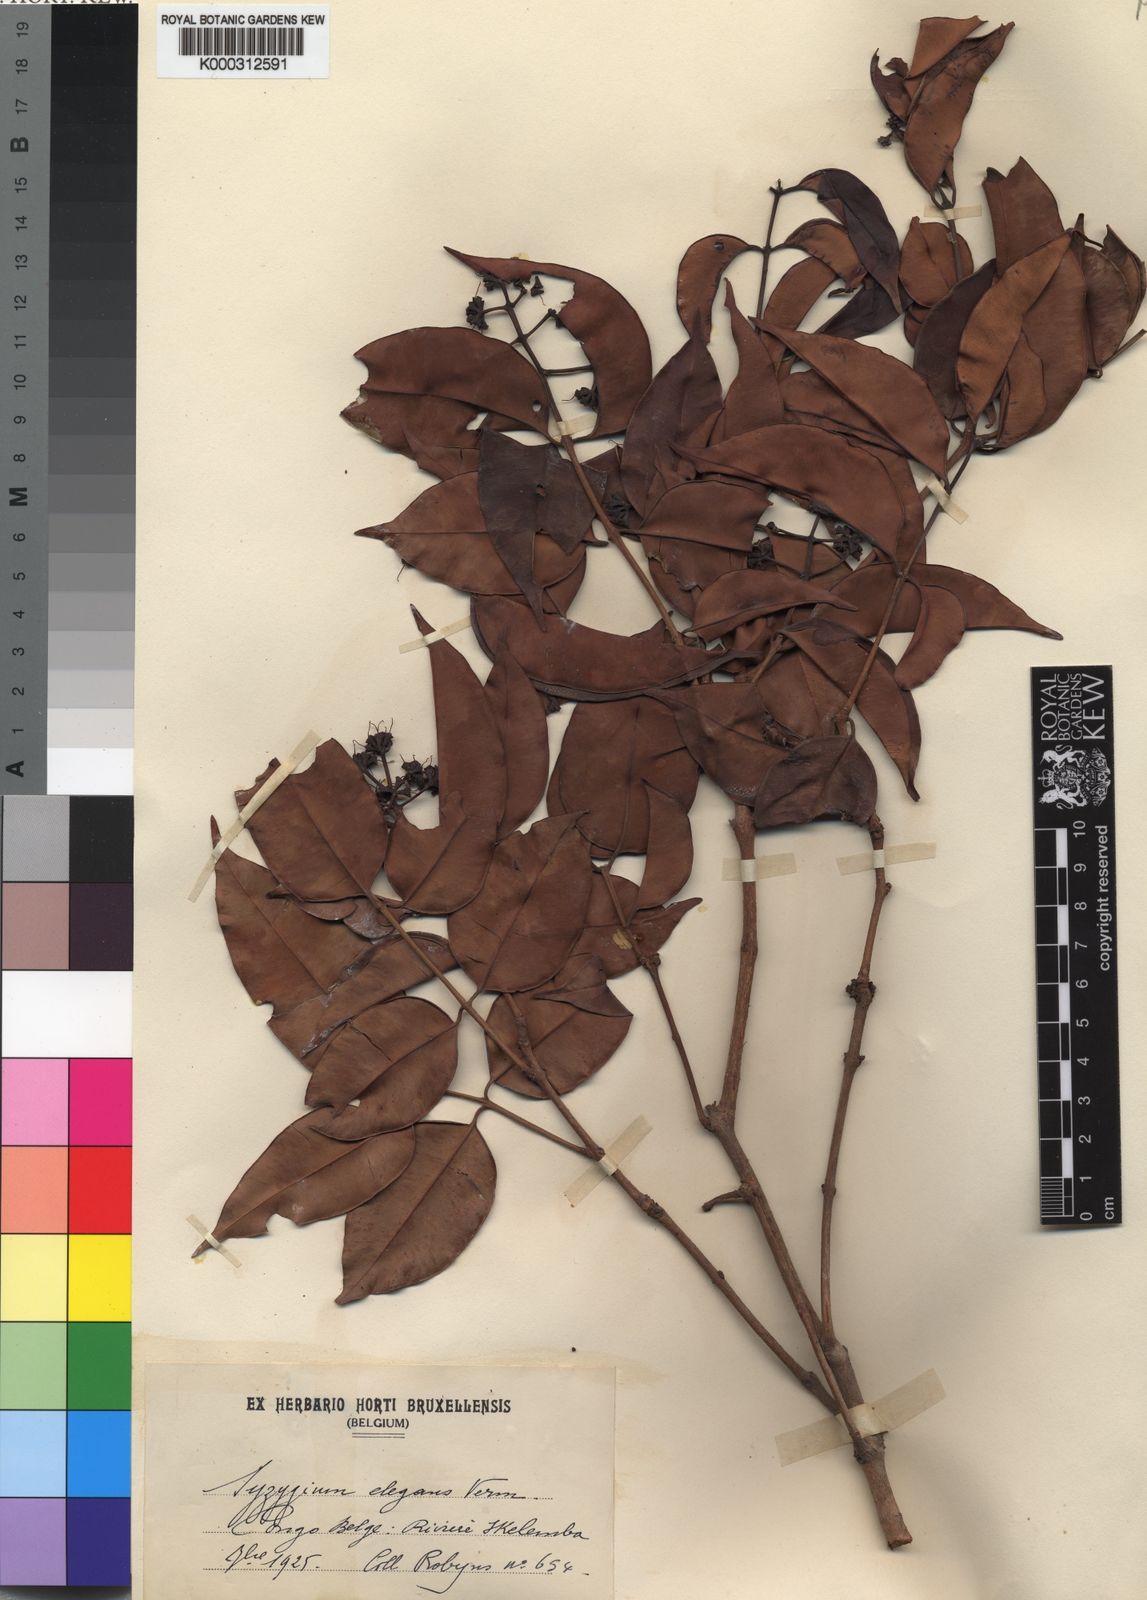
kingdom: Plantae
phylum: Tracheophyta
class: Magnoliopsida
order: Myrtales
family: Myrtaceae
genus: Syzygium
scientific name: Syzygium
